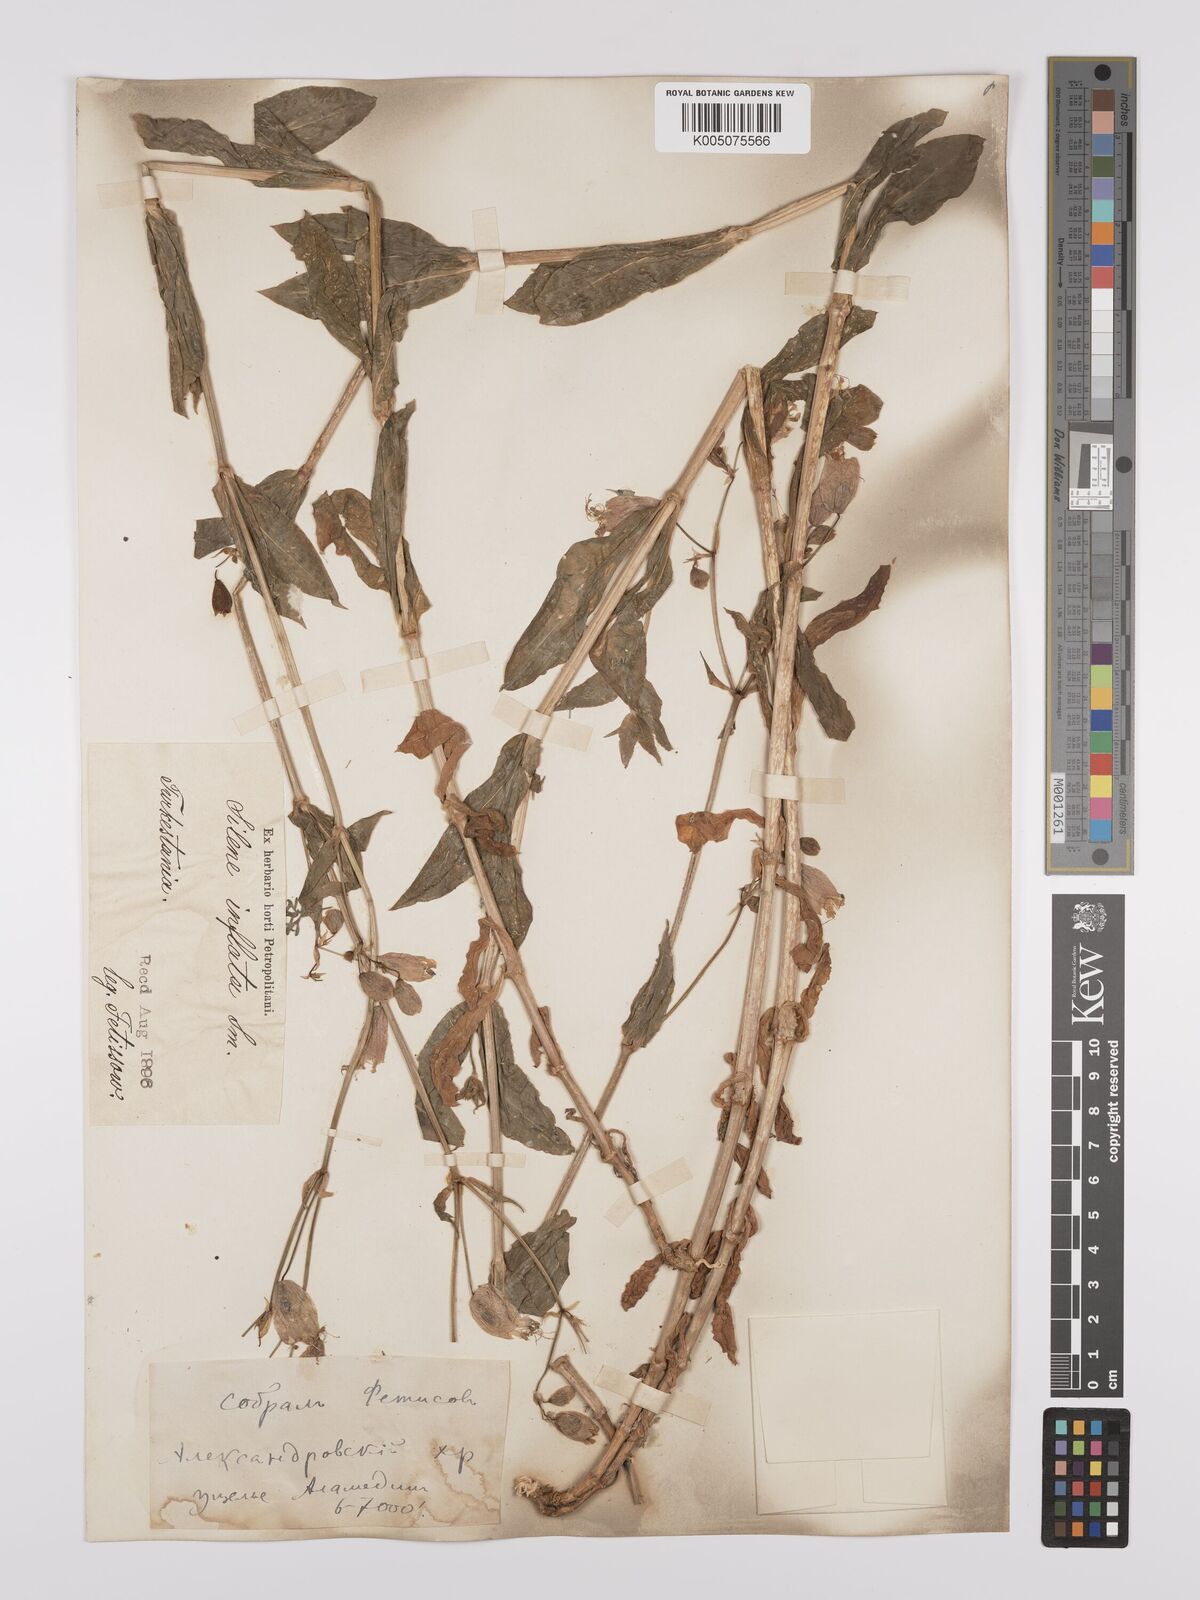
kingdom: Plantae
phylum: Tracheophyta
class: Magnoliopsida
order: Caryophyllales
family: Caryophyllaceae
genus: Silene
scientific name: Silene vulgaris
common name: Bladder campion
